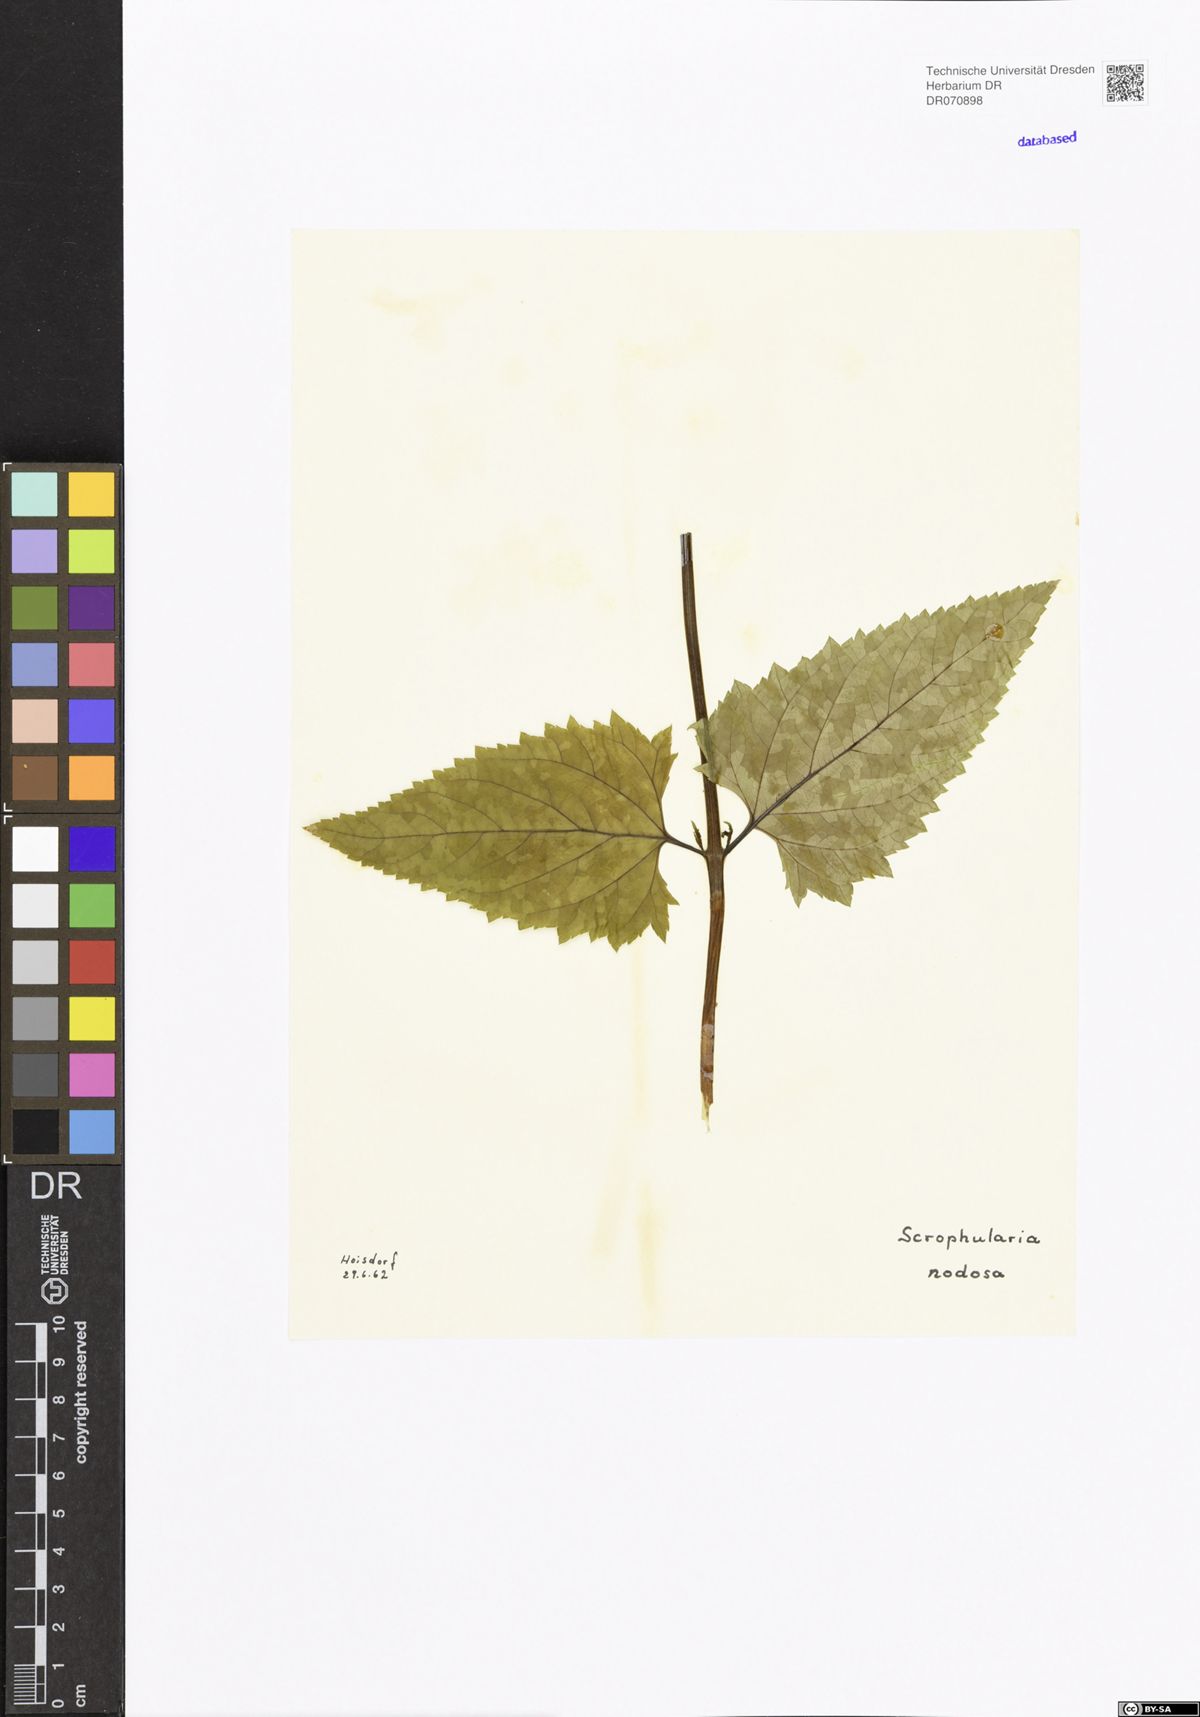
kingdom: Plantae
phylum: Tracheophyta
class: Magnoliopsida
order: Lamiales
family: Scrophulariaceae
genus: Scrophularia
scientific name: Scrophularia nodosa
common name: Common figwort
